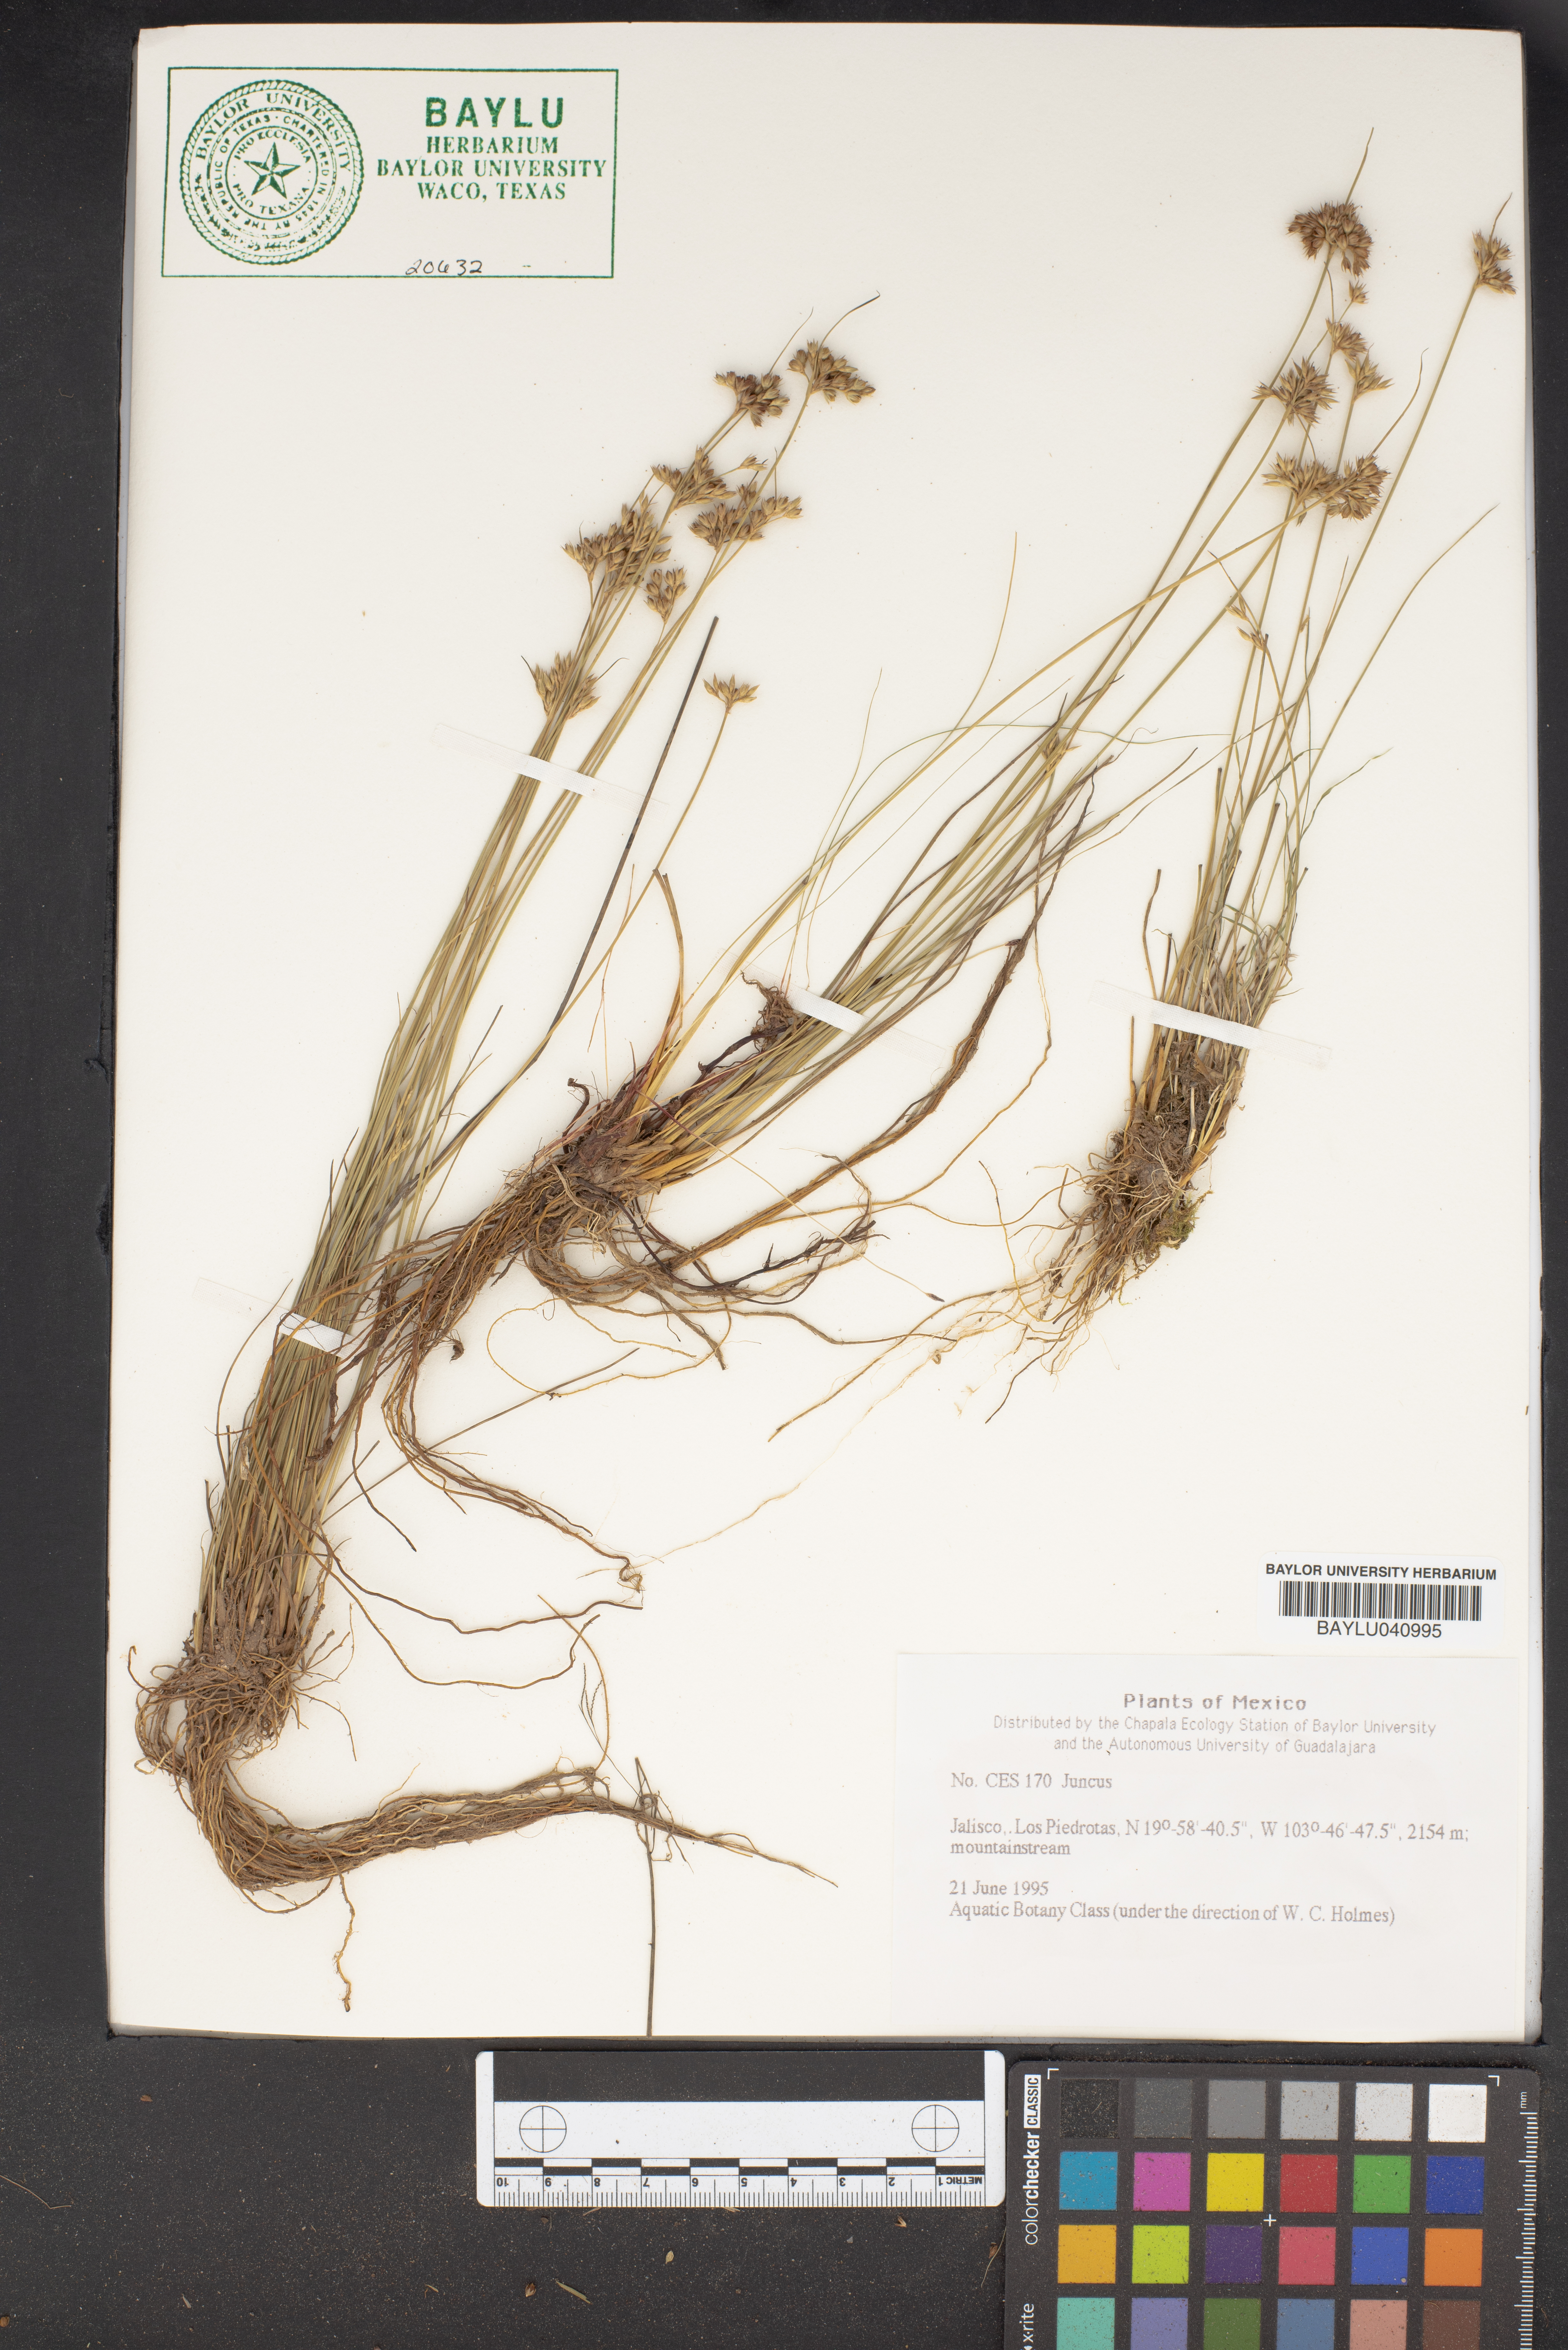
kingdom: Plantae
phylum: Tracheophyta
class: Liliopsida
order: Poales
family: Juncaceae
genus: Juncus
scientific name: Juncus
